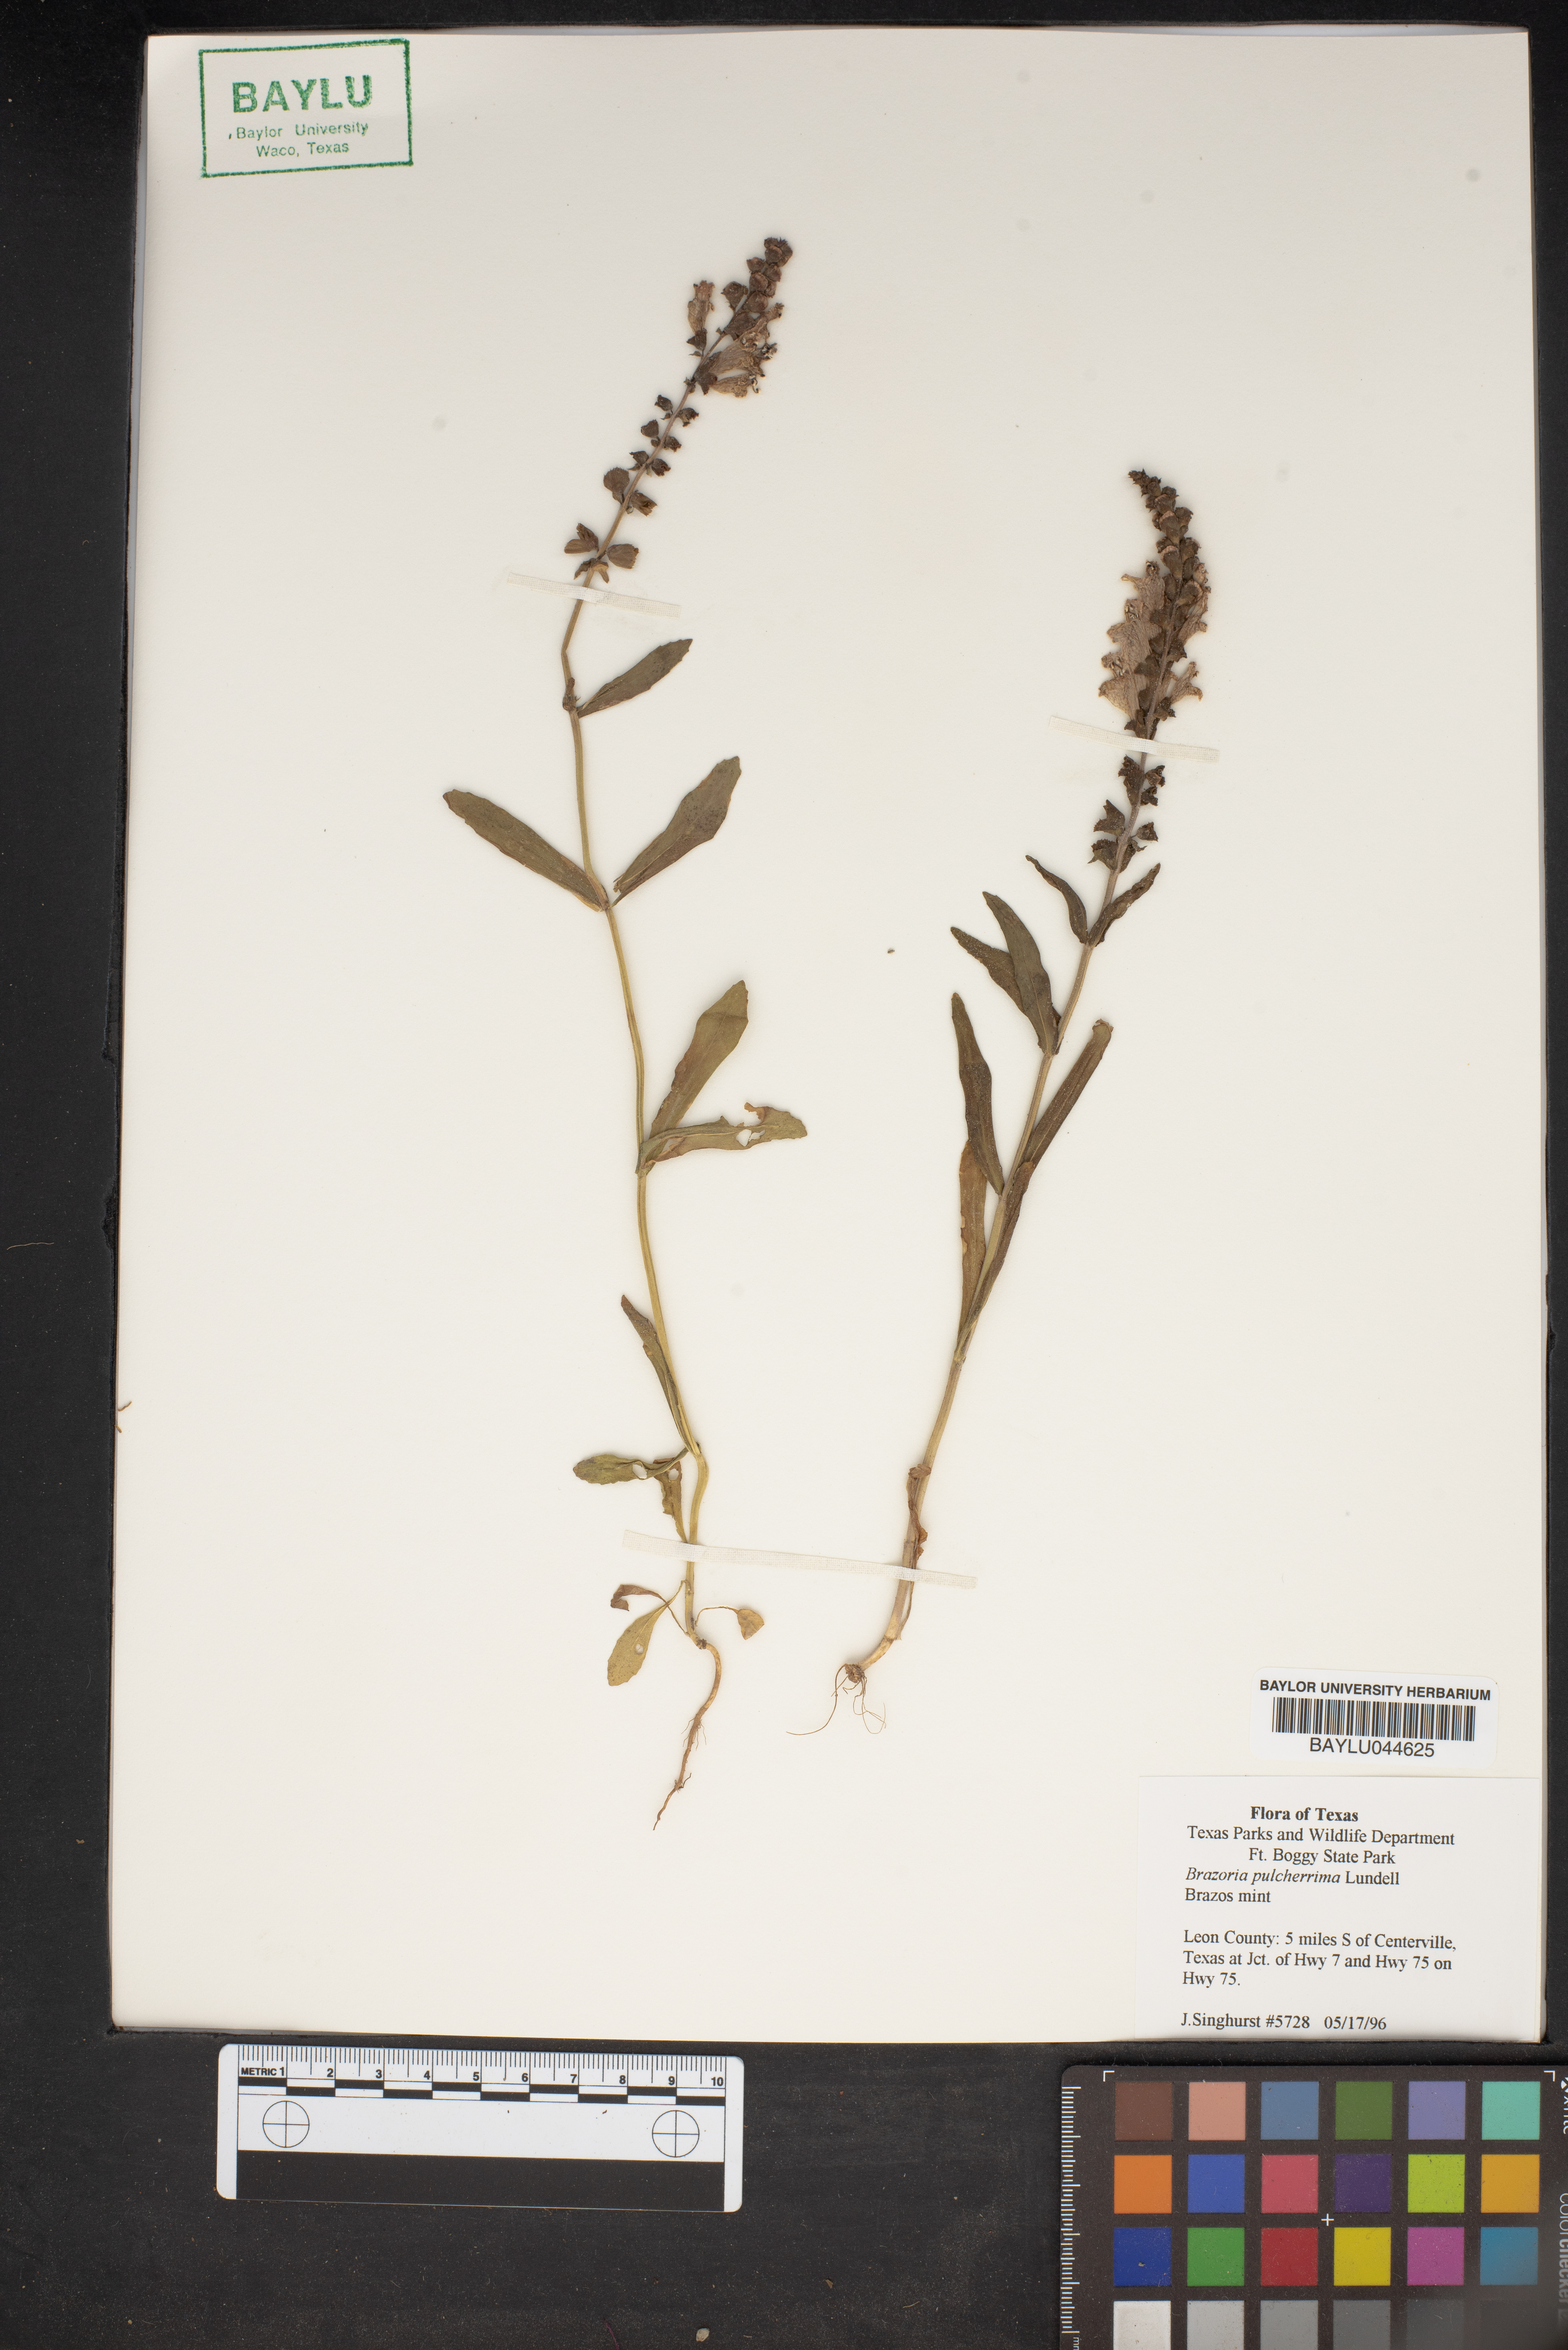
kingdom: Plantae
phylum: Tracheophyta
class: Magnoliopsida
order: Lamiales
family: Lamiaceae
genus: Brazoria
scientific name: Brazoria truncata
